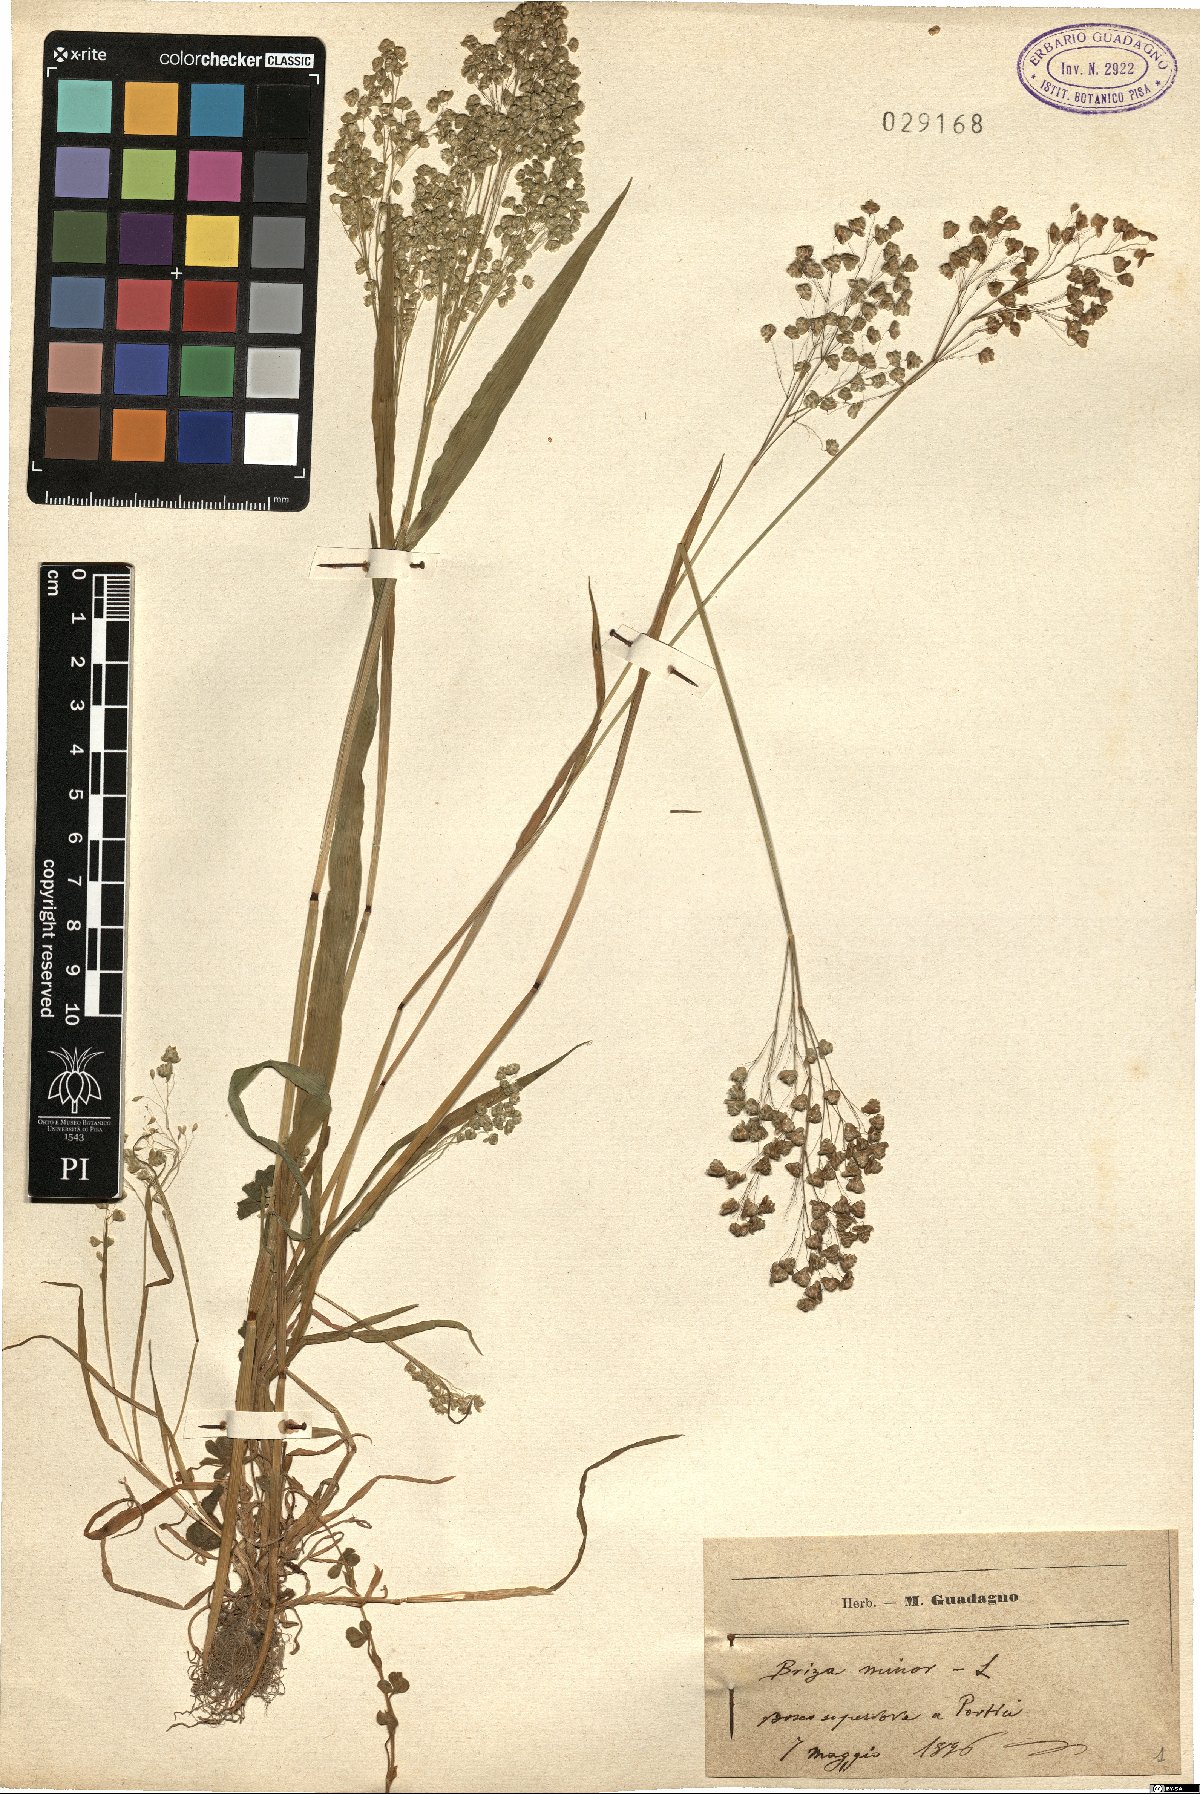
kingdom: Plantae
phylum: Tracheophyta
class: Liliopsida
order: Poales
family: Poaceae
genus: Briza
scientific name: Briza minor
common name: Lesser quaking-grass
